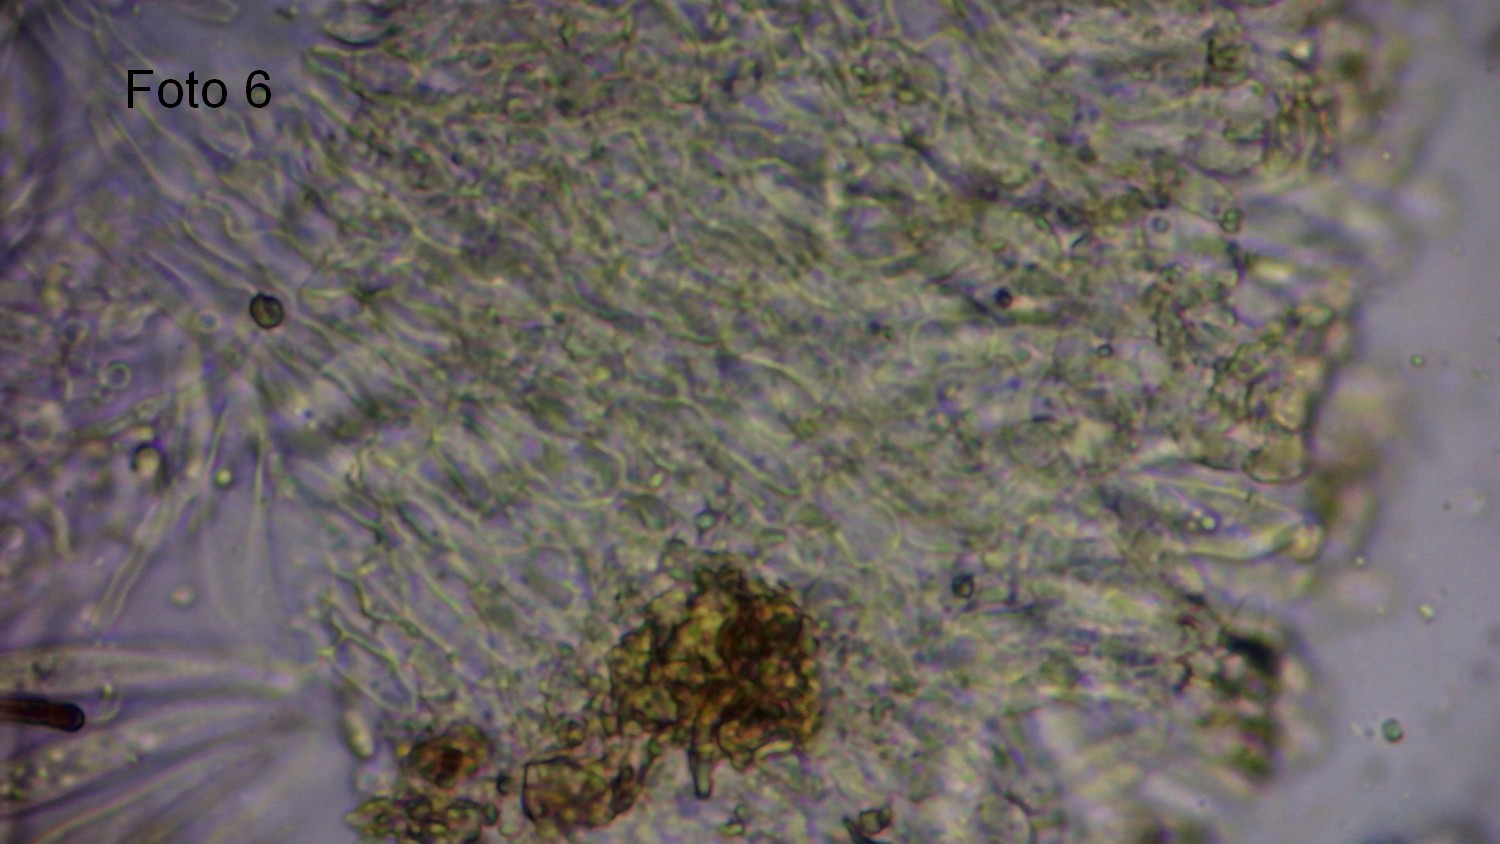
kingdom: Fungi
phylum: Ascomycota
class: Leotiomycetes
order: Helotiales
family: Pezizellaceae
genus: Calycina
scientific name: Calycina
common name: gulskive
